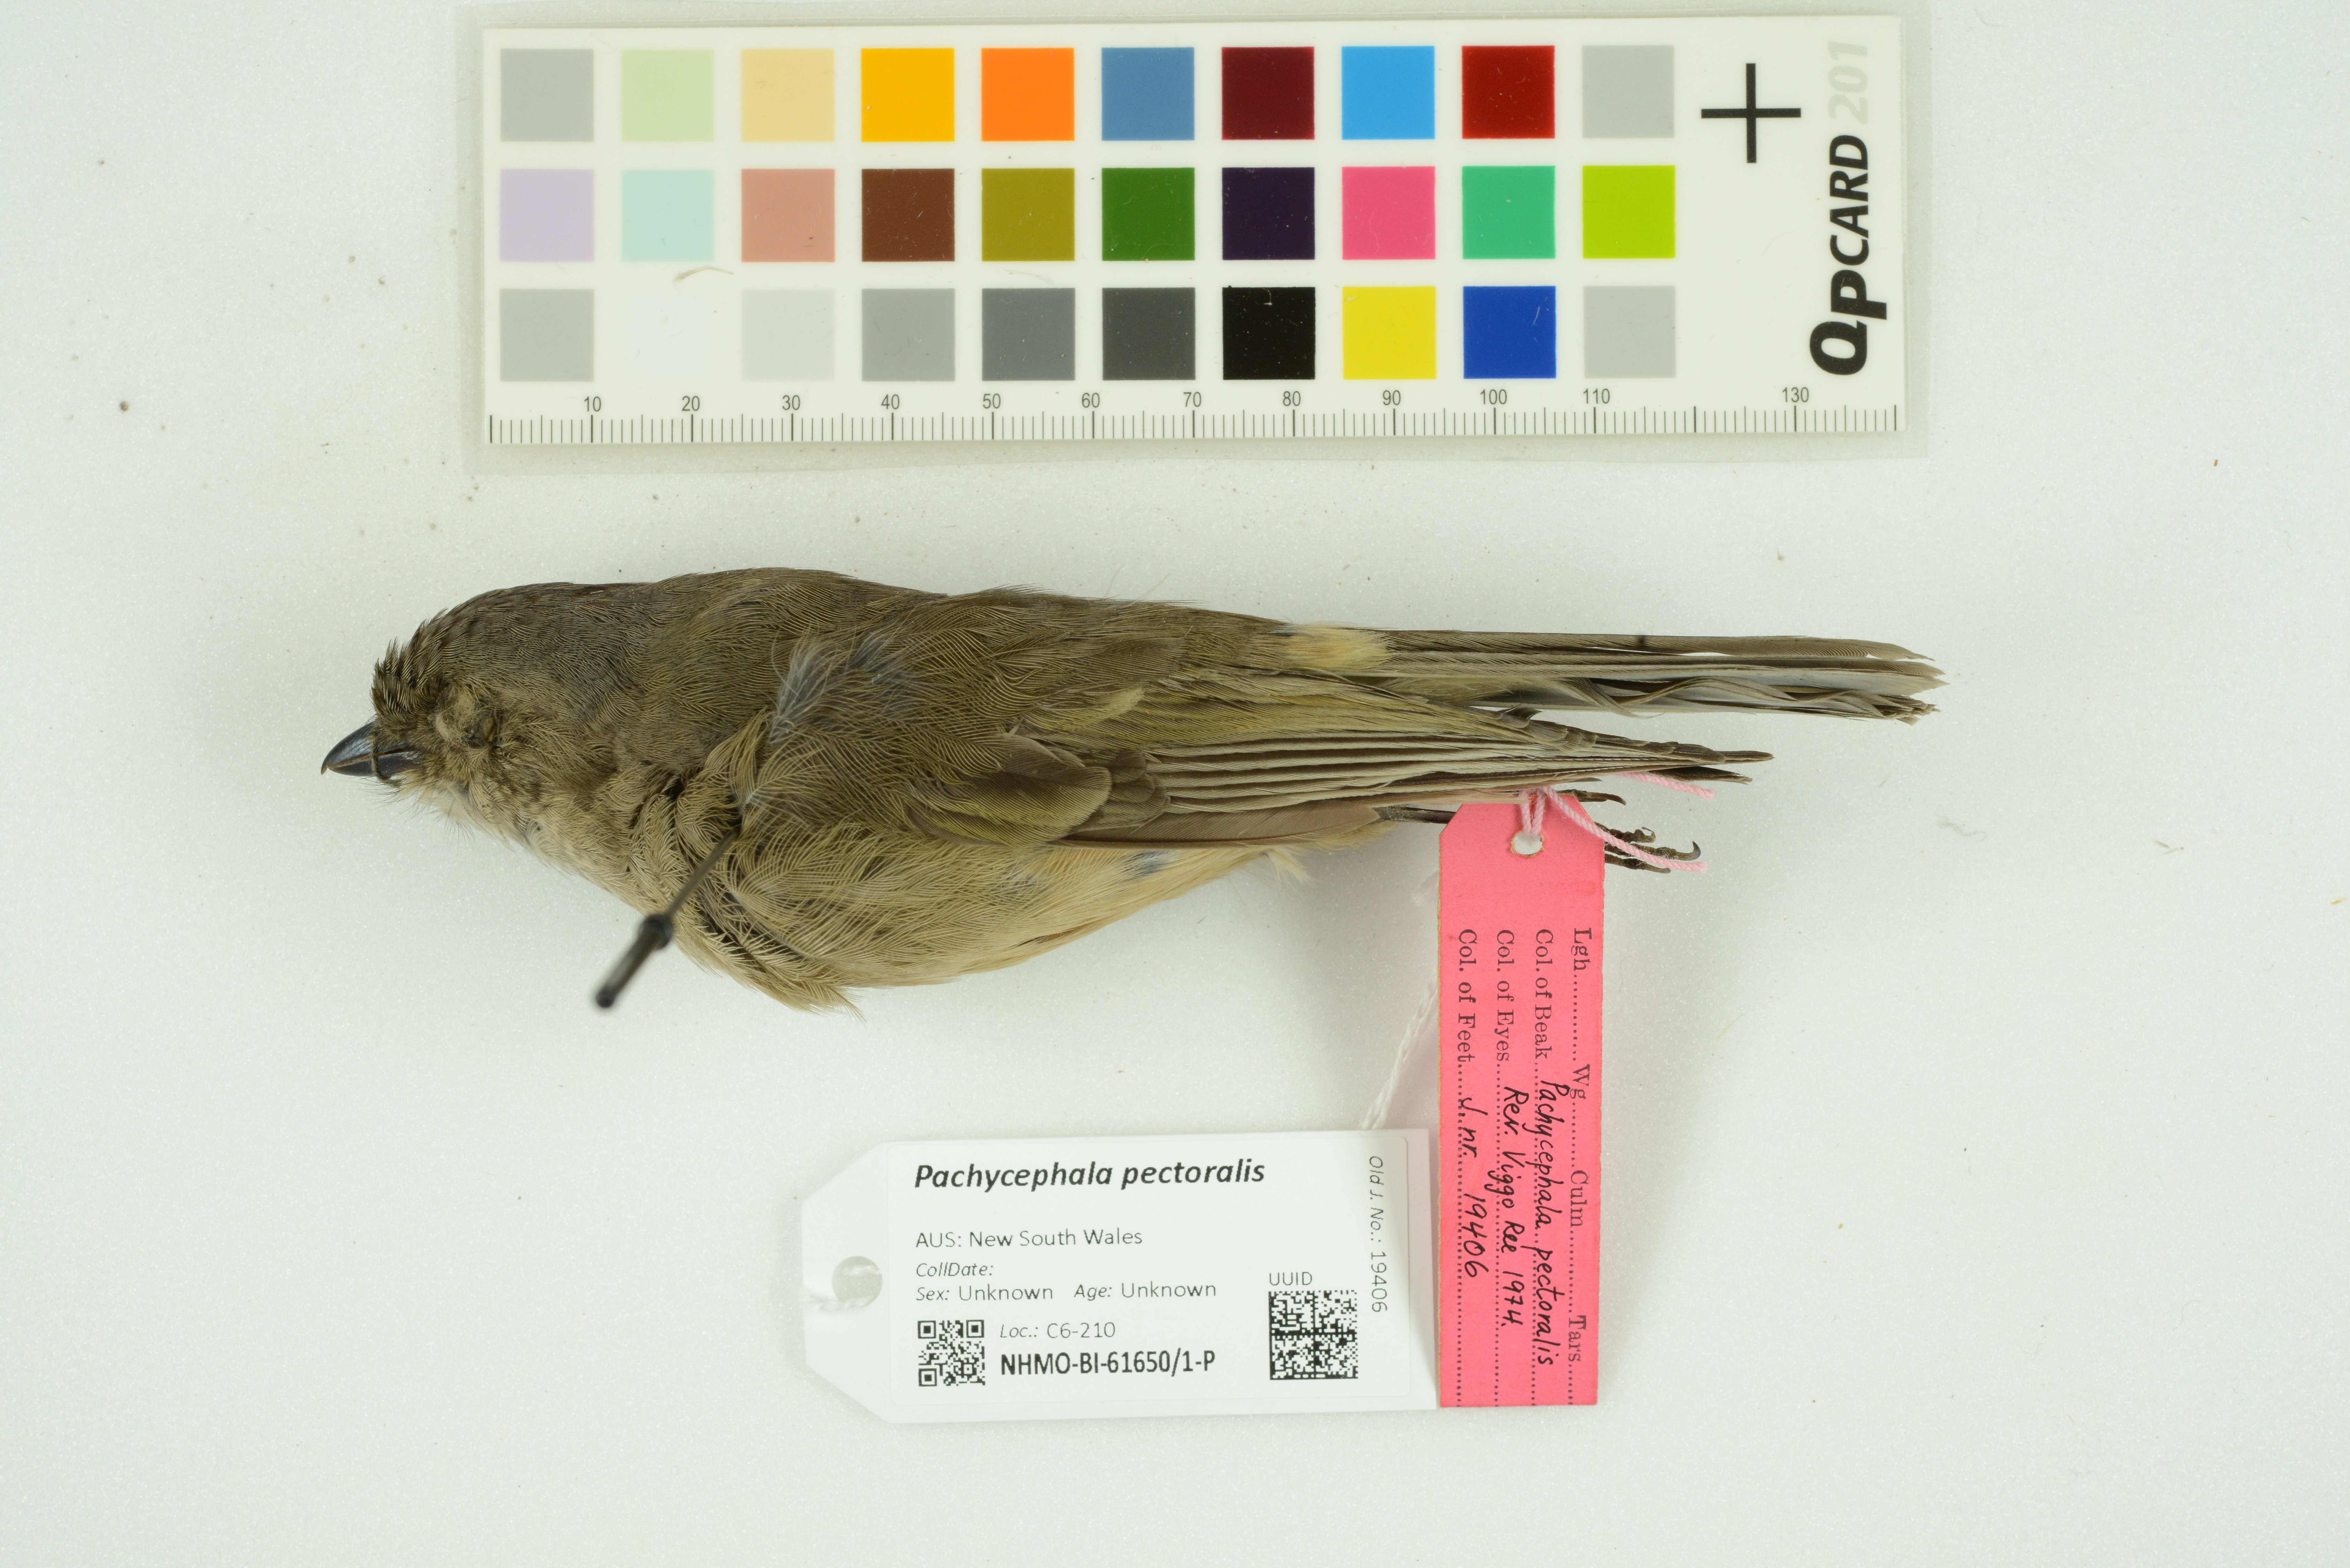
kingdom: Animalia
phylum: Chordata
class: Aves
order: Passeriformes
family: Pachycephalidae
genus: Pachycephala
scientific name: Pachycephala pectoralis
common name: Australian golden whistler
